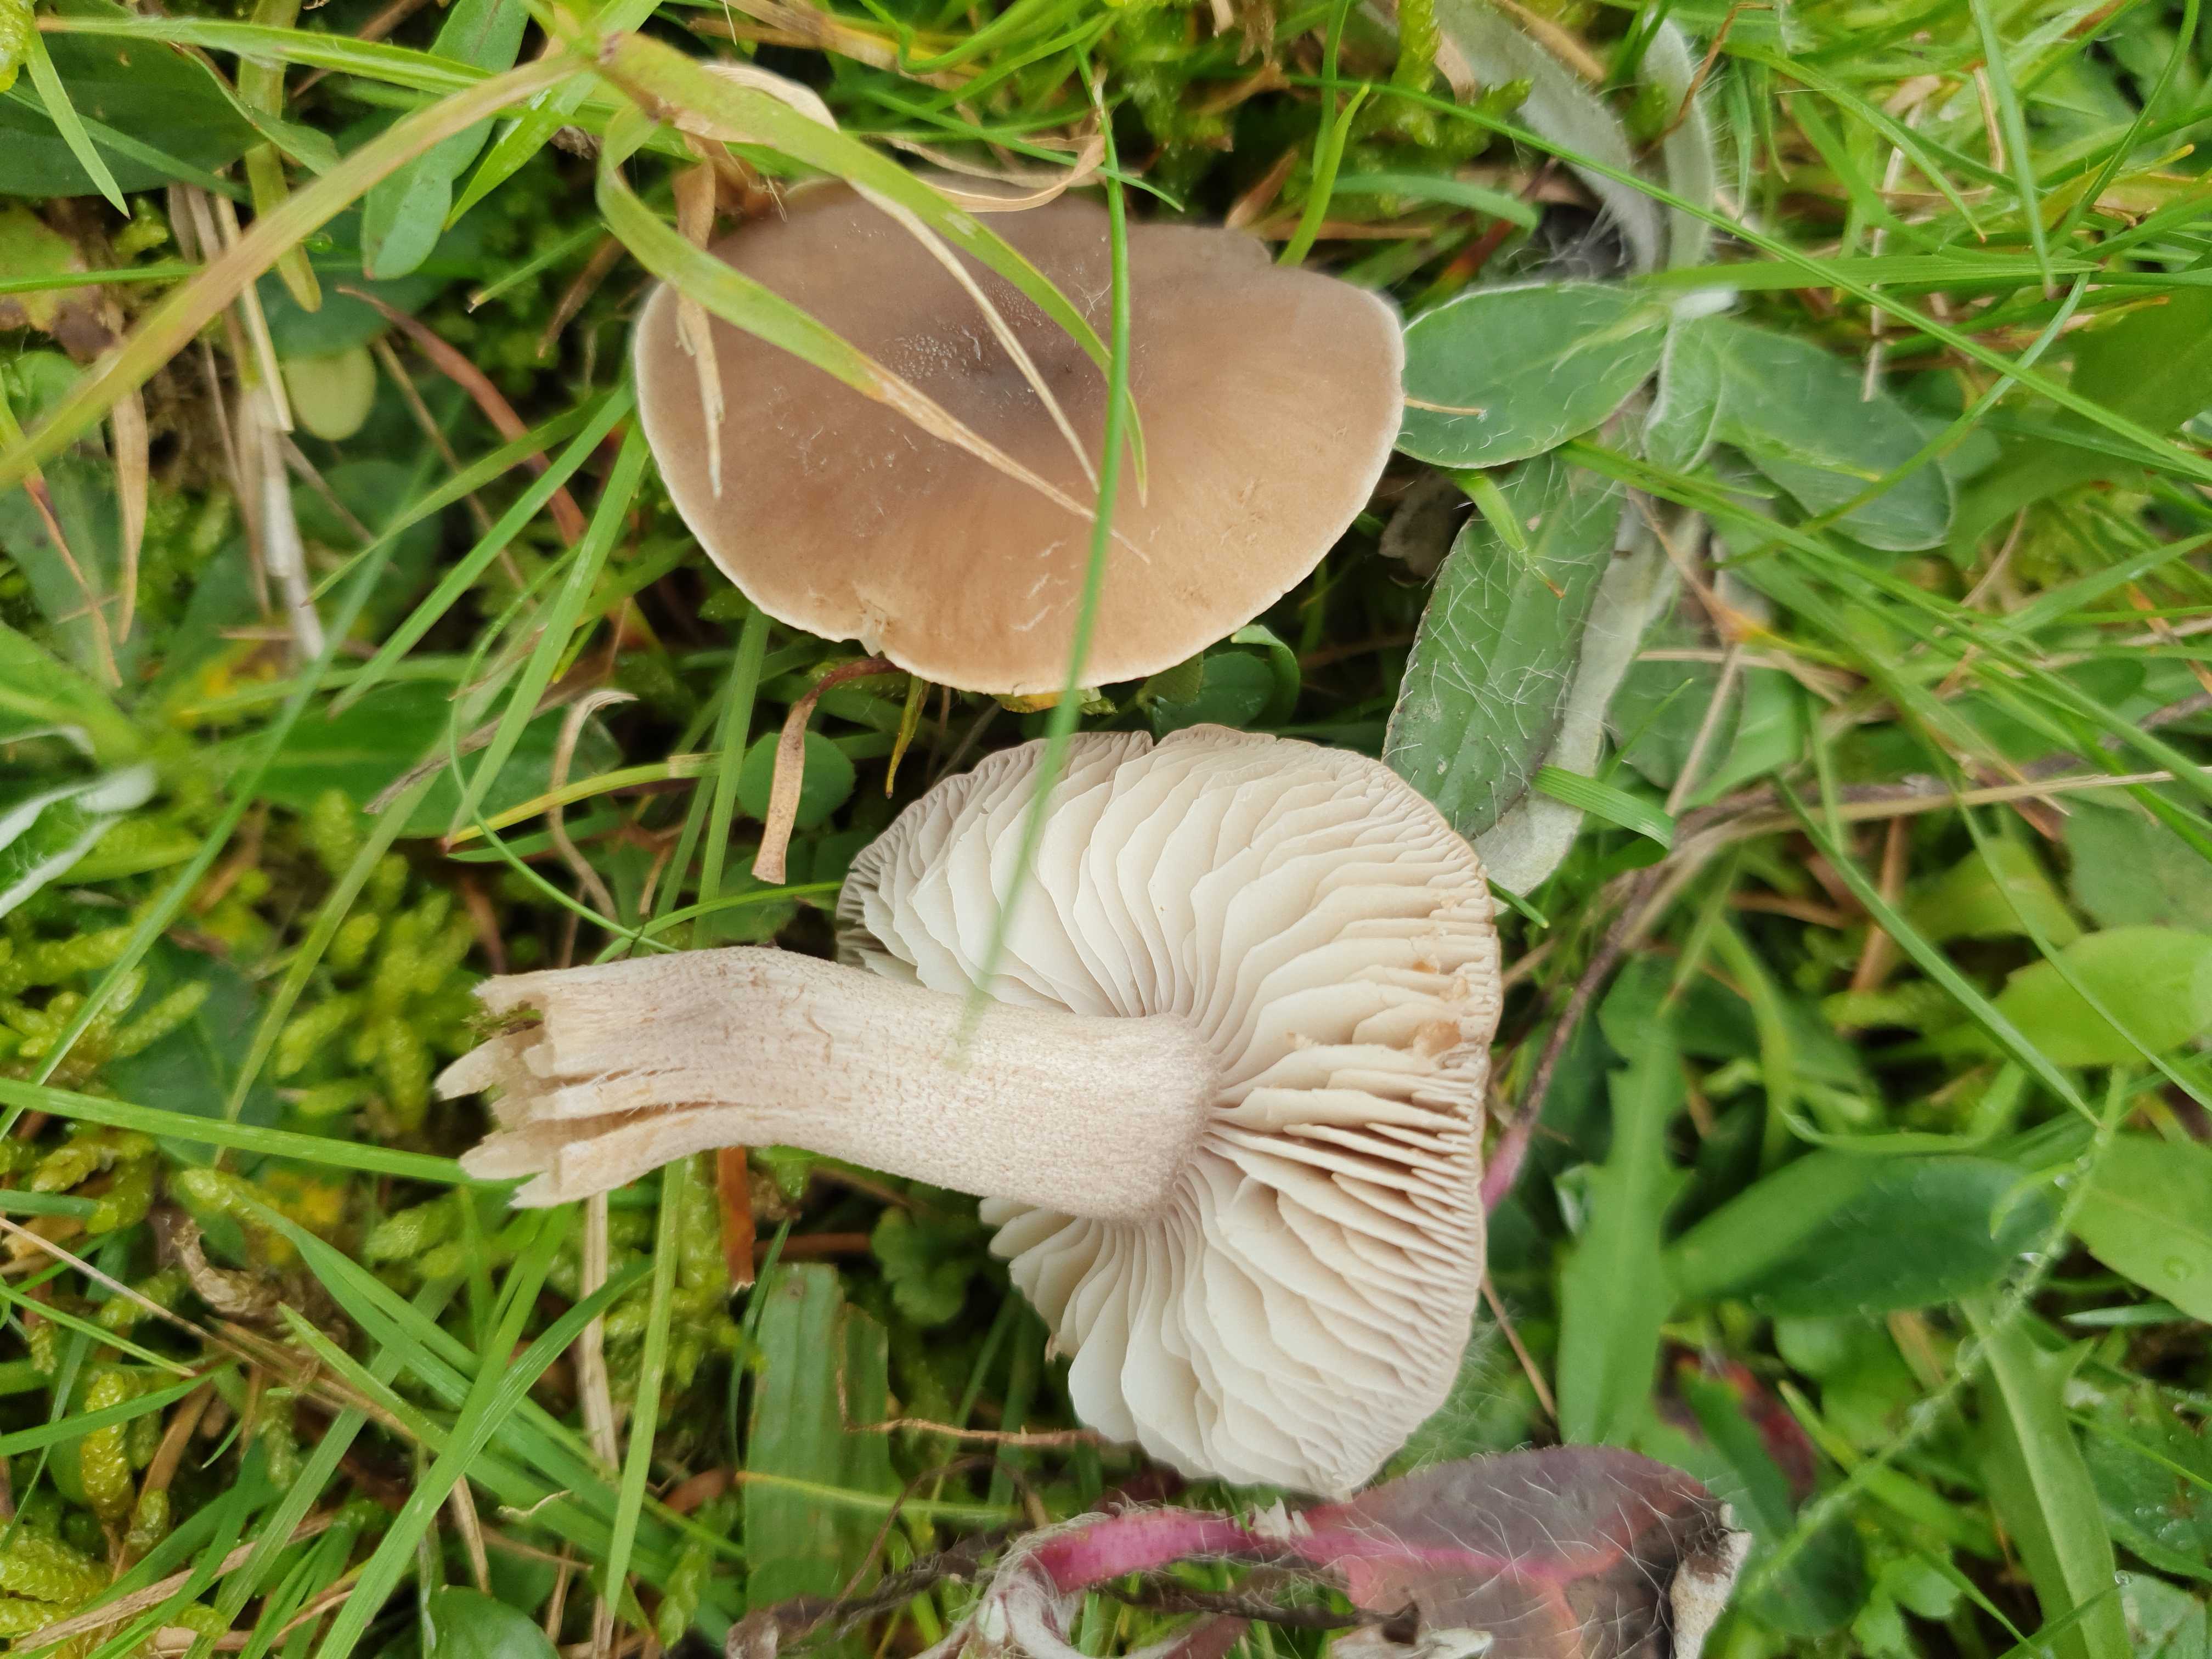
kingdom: Fungi
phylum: Basidiomycota
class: Agaricomycetes
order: Agaricales
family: Tricholomataceae
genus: Dermoloma
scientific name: Dermoloma cuneifolium
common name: eng-nonnehat
